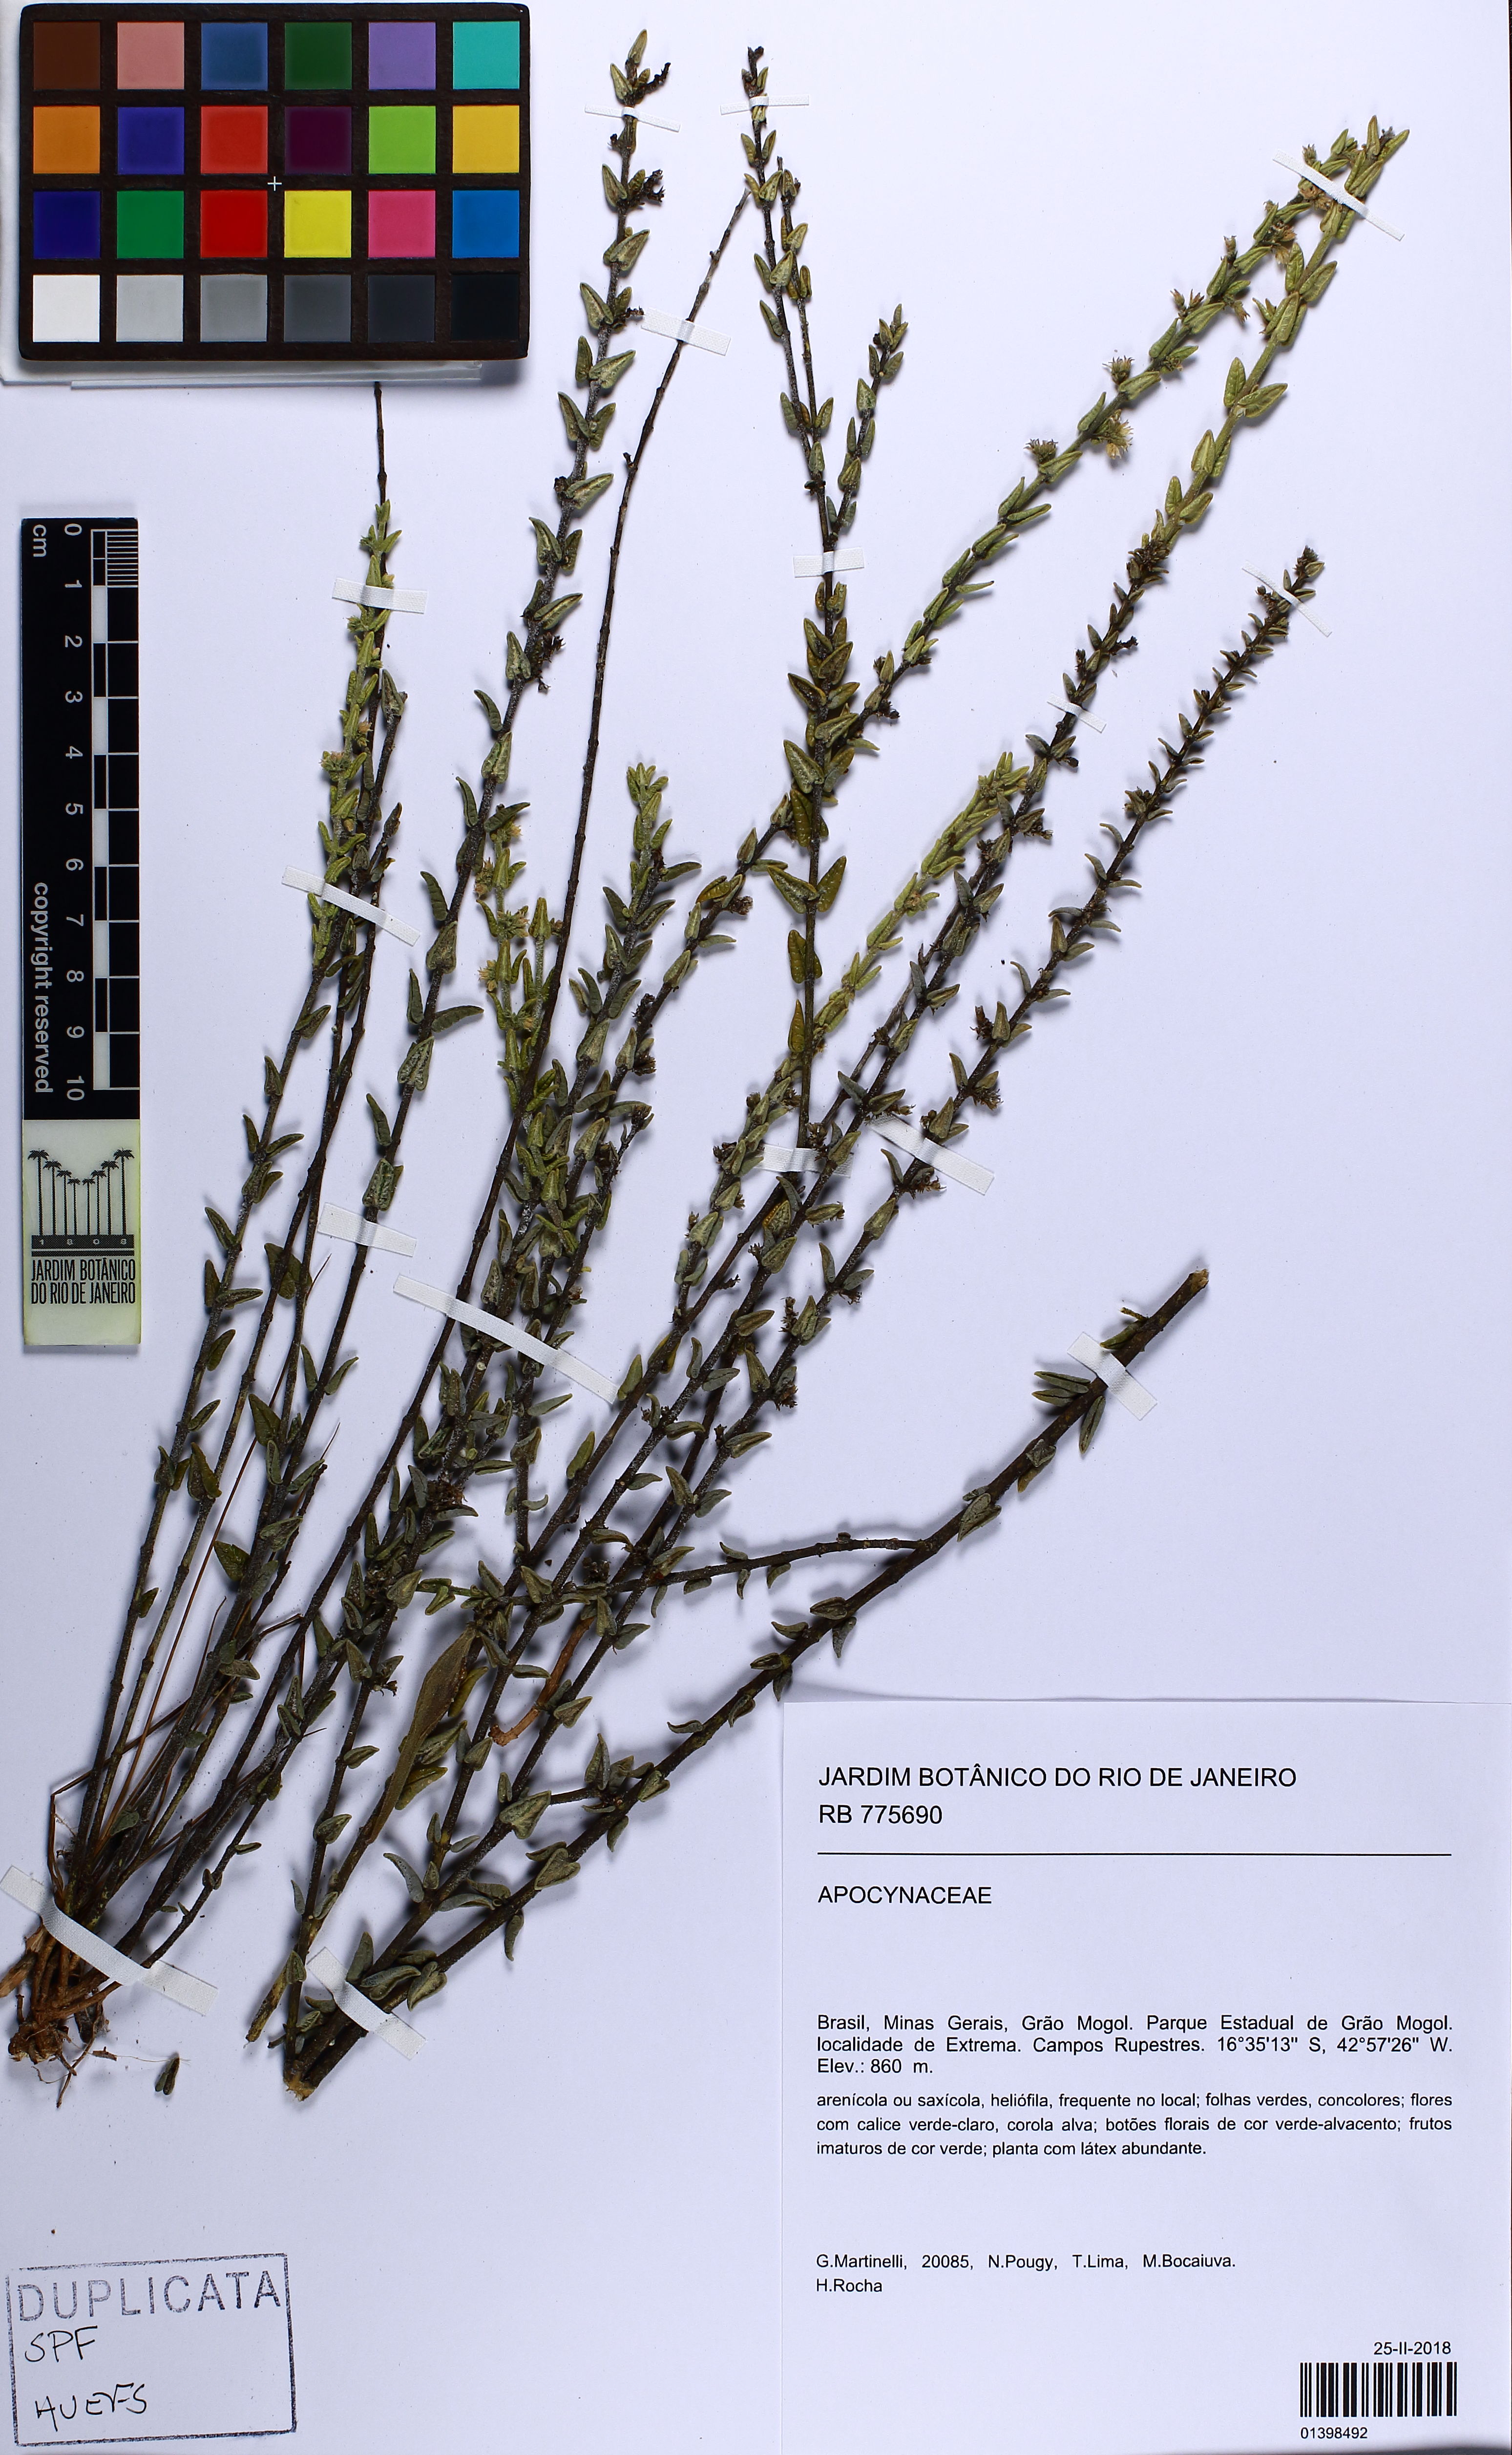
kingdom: Plantae
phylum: Tracheophyta
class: Magnoliopsida
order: Gentianales
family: Apocynaceae
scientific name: Apocynaceae
